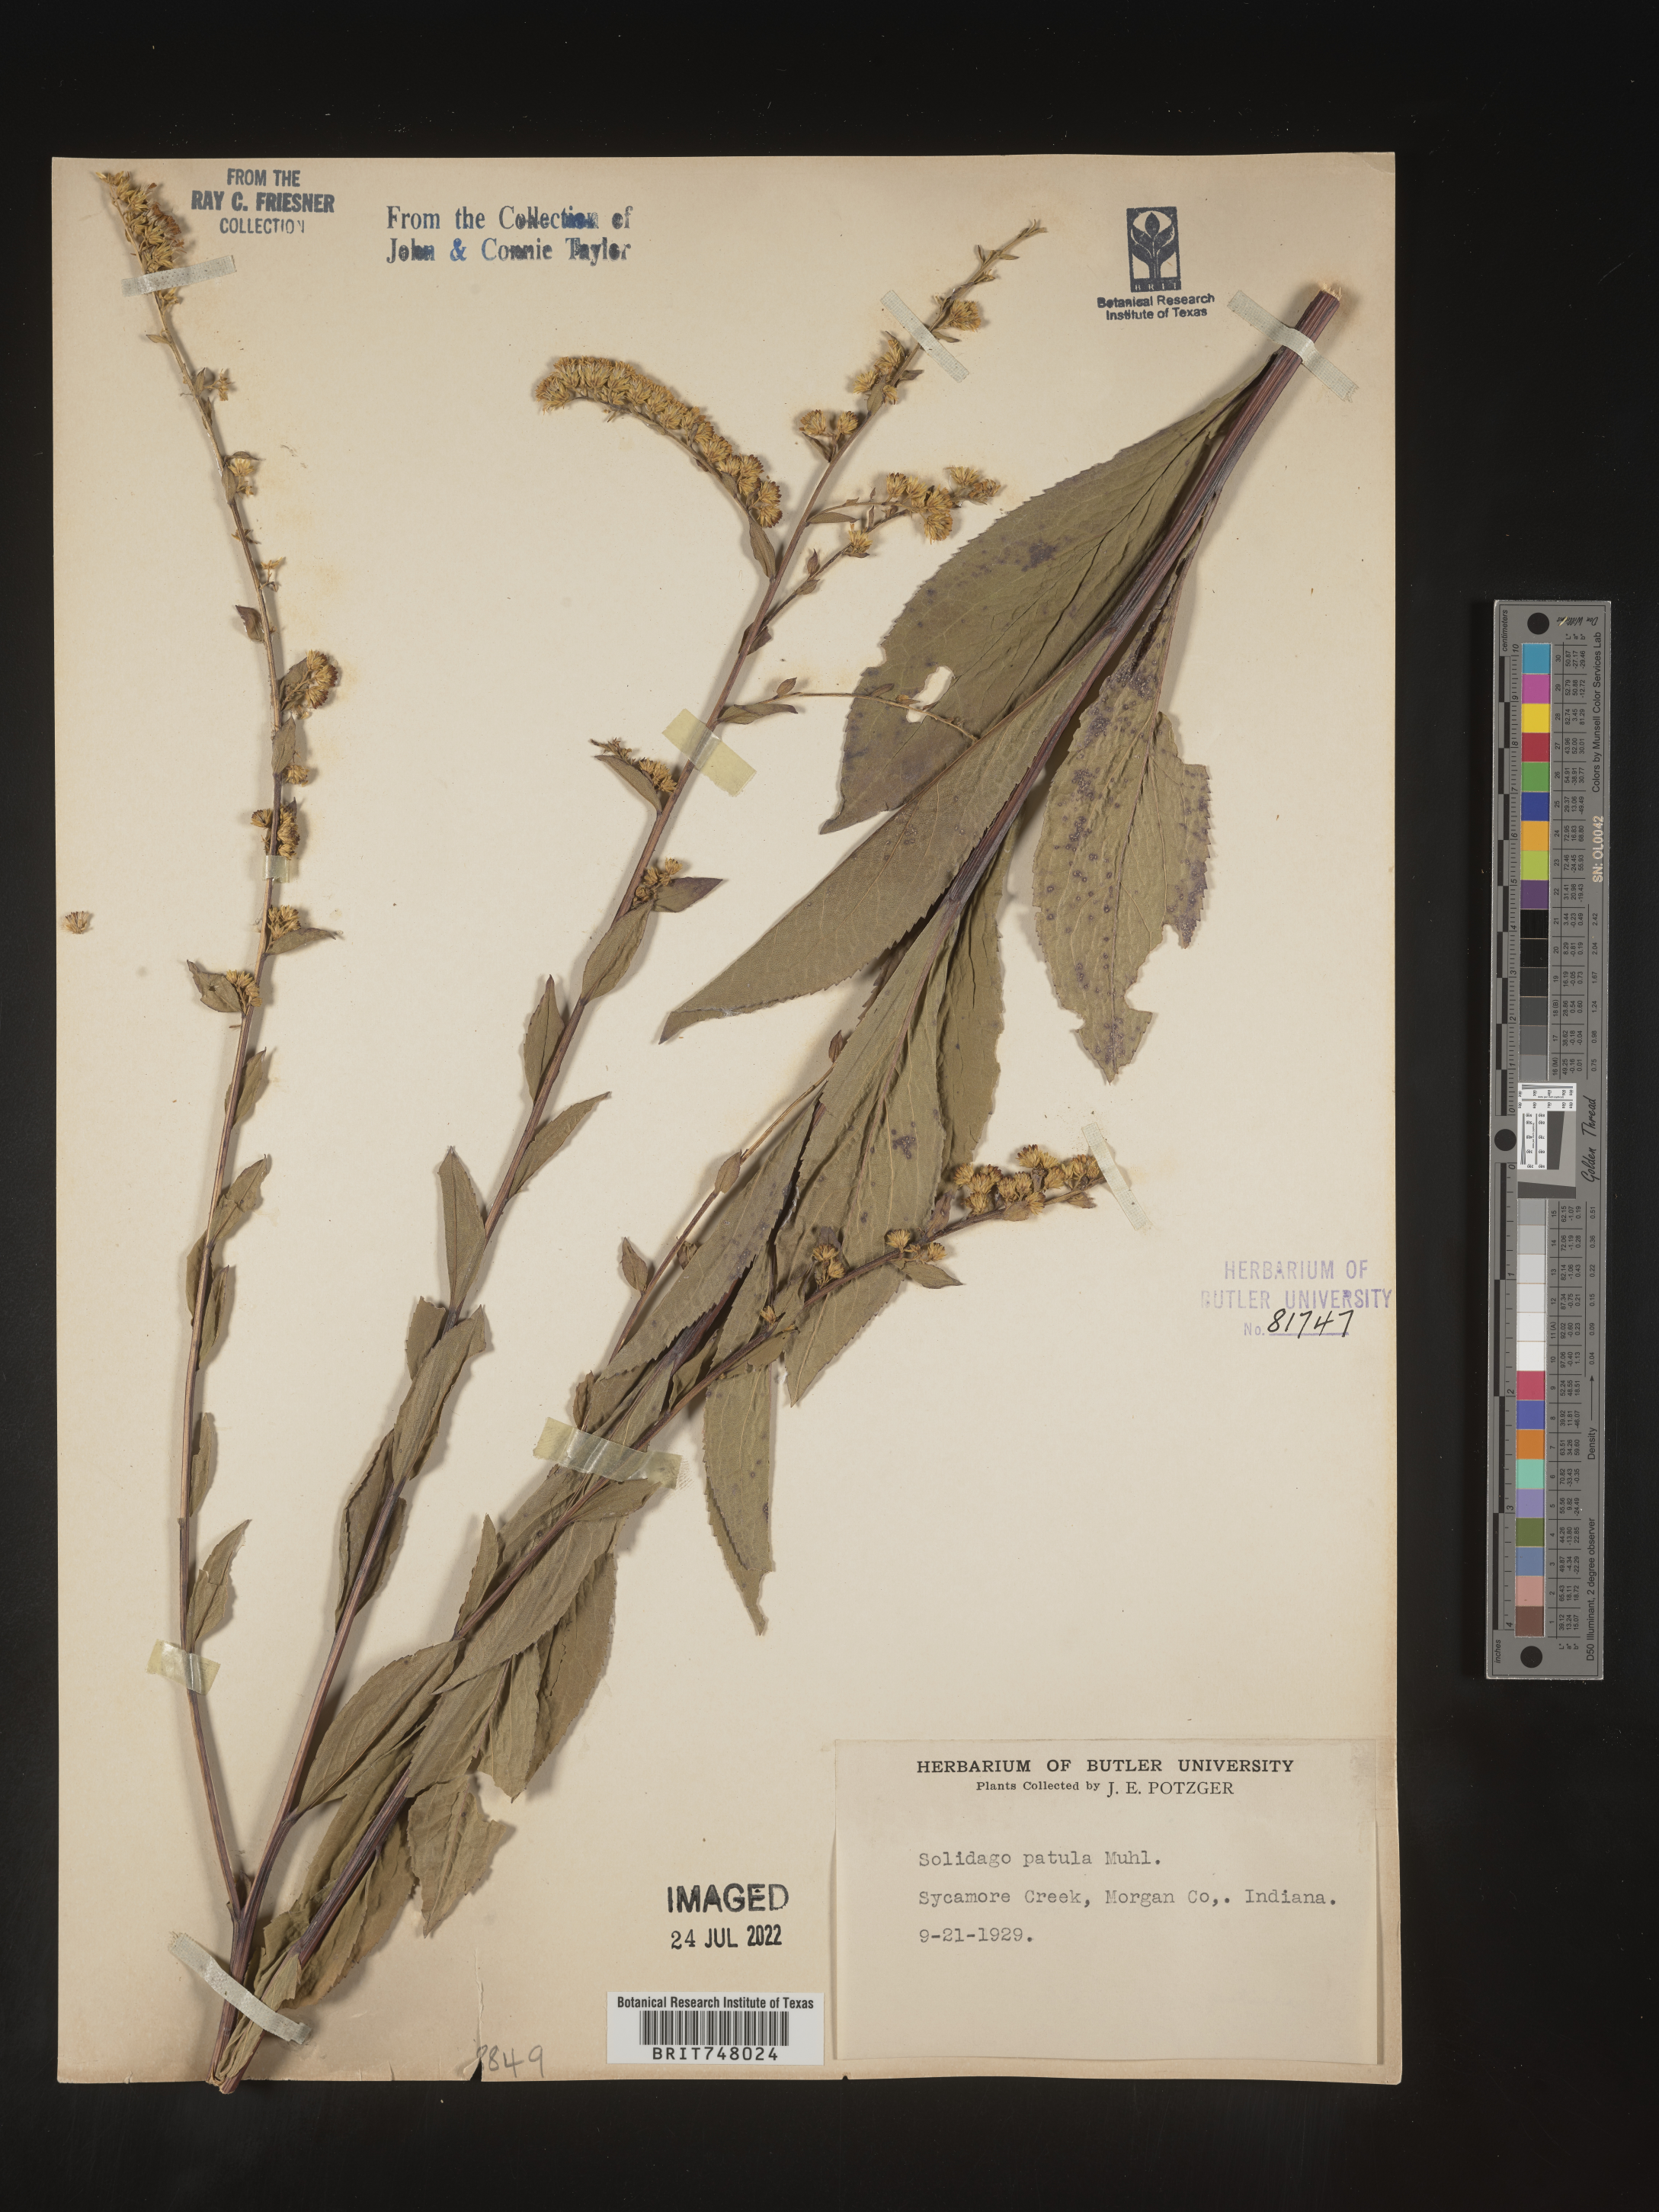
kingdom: Plantae
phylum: Tracheophyta
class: Magnoliopsida
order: Asterales
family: Asteraceae
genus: Solidago
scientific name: Solidago patula
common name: Rough-leaf goldenrod
